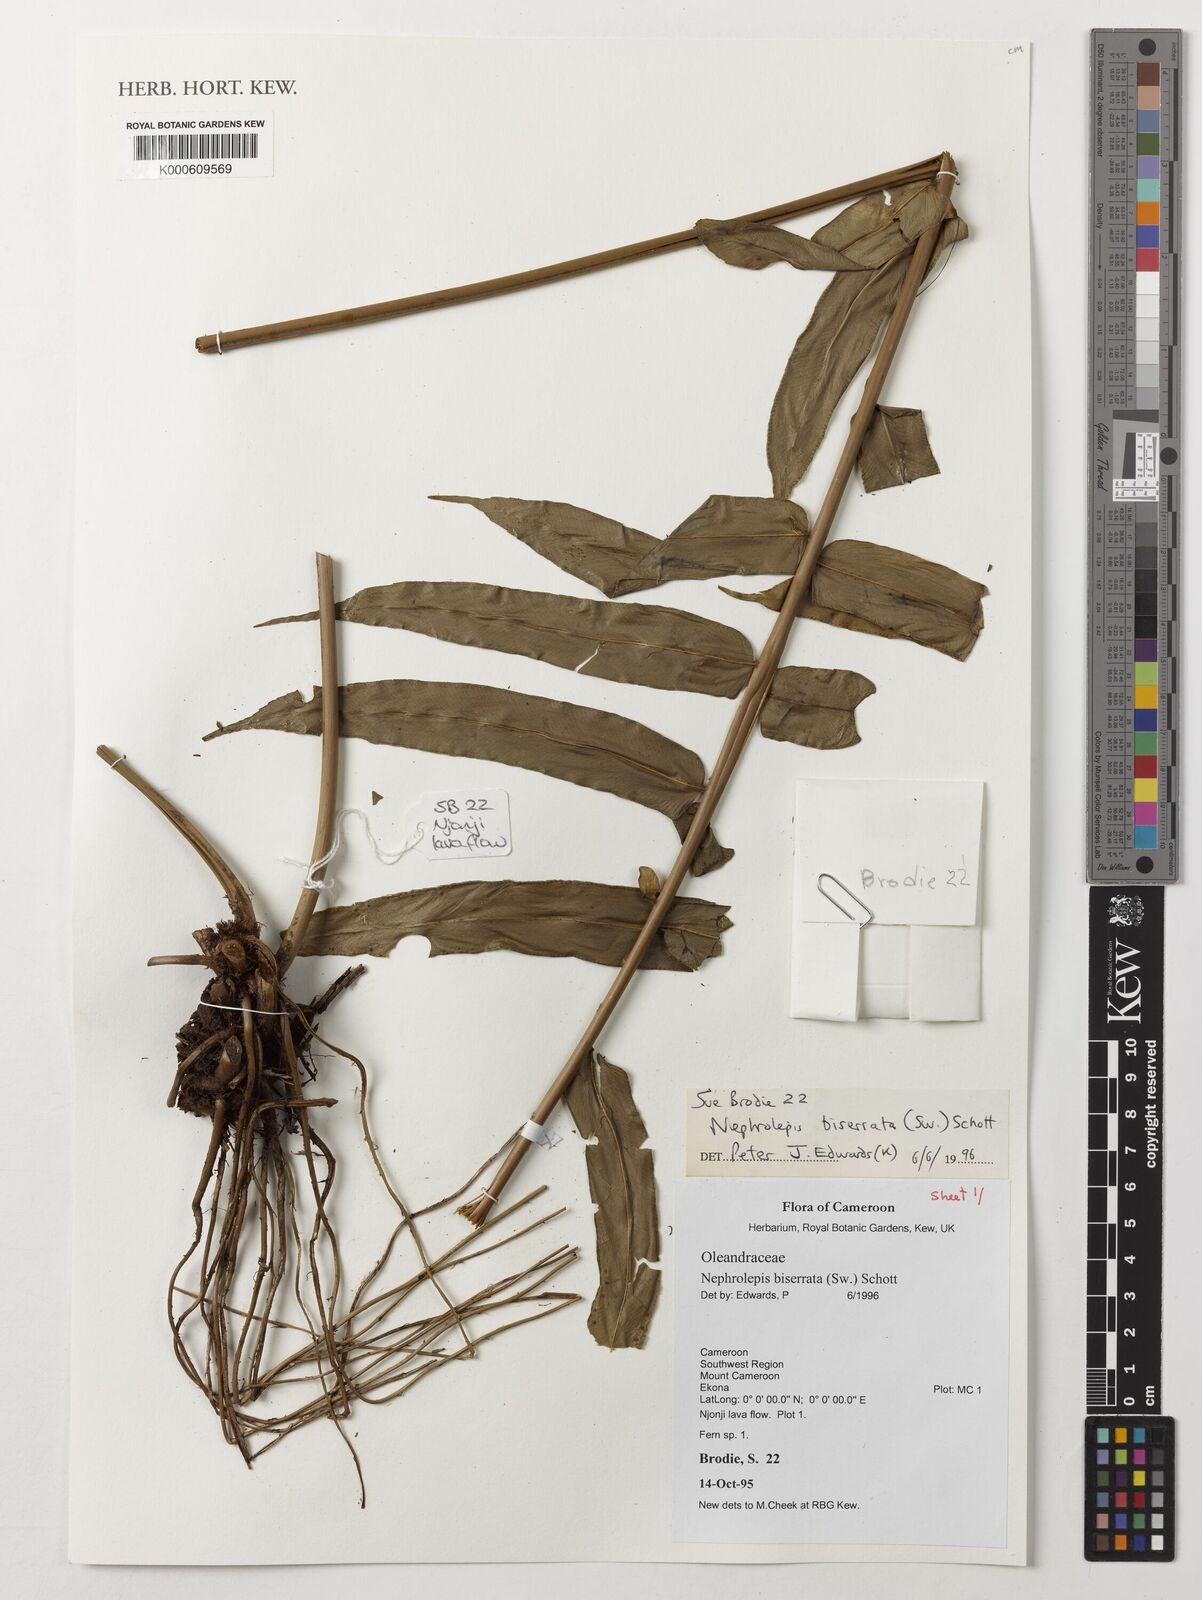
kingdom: Plantae
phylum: Tracheophyta
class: Polypodiopsida
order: Polypodiales
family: Nephrolepidaceae
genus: Nephrolepis
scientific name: Nephrolepis biserrata
